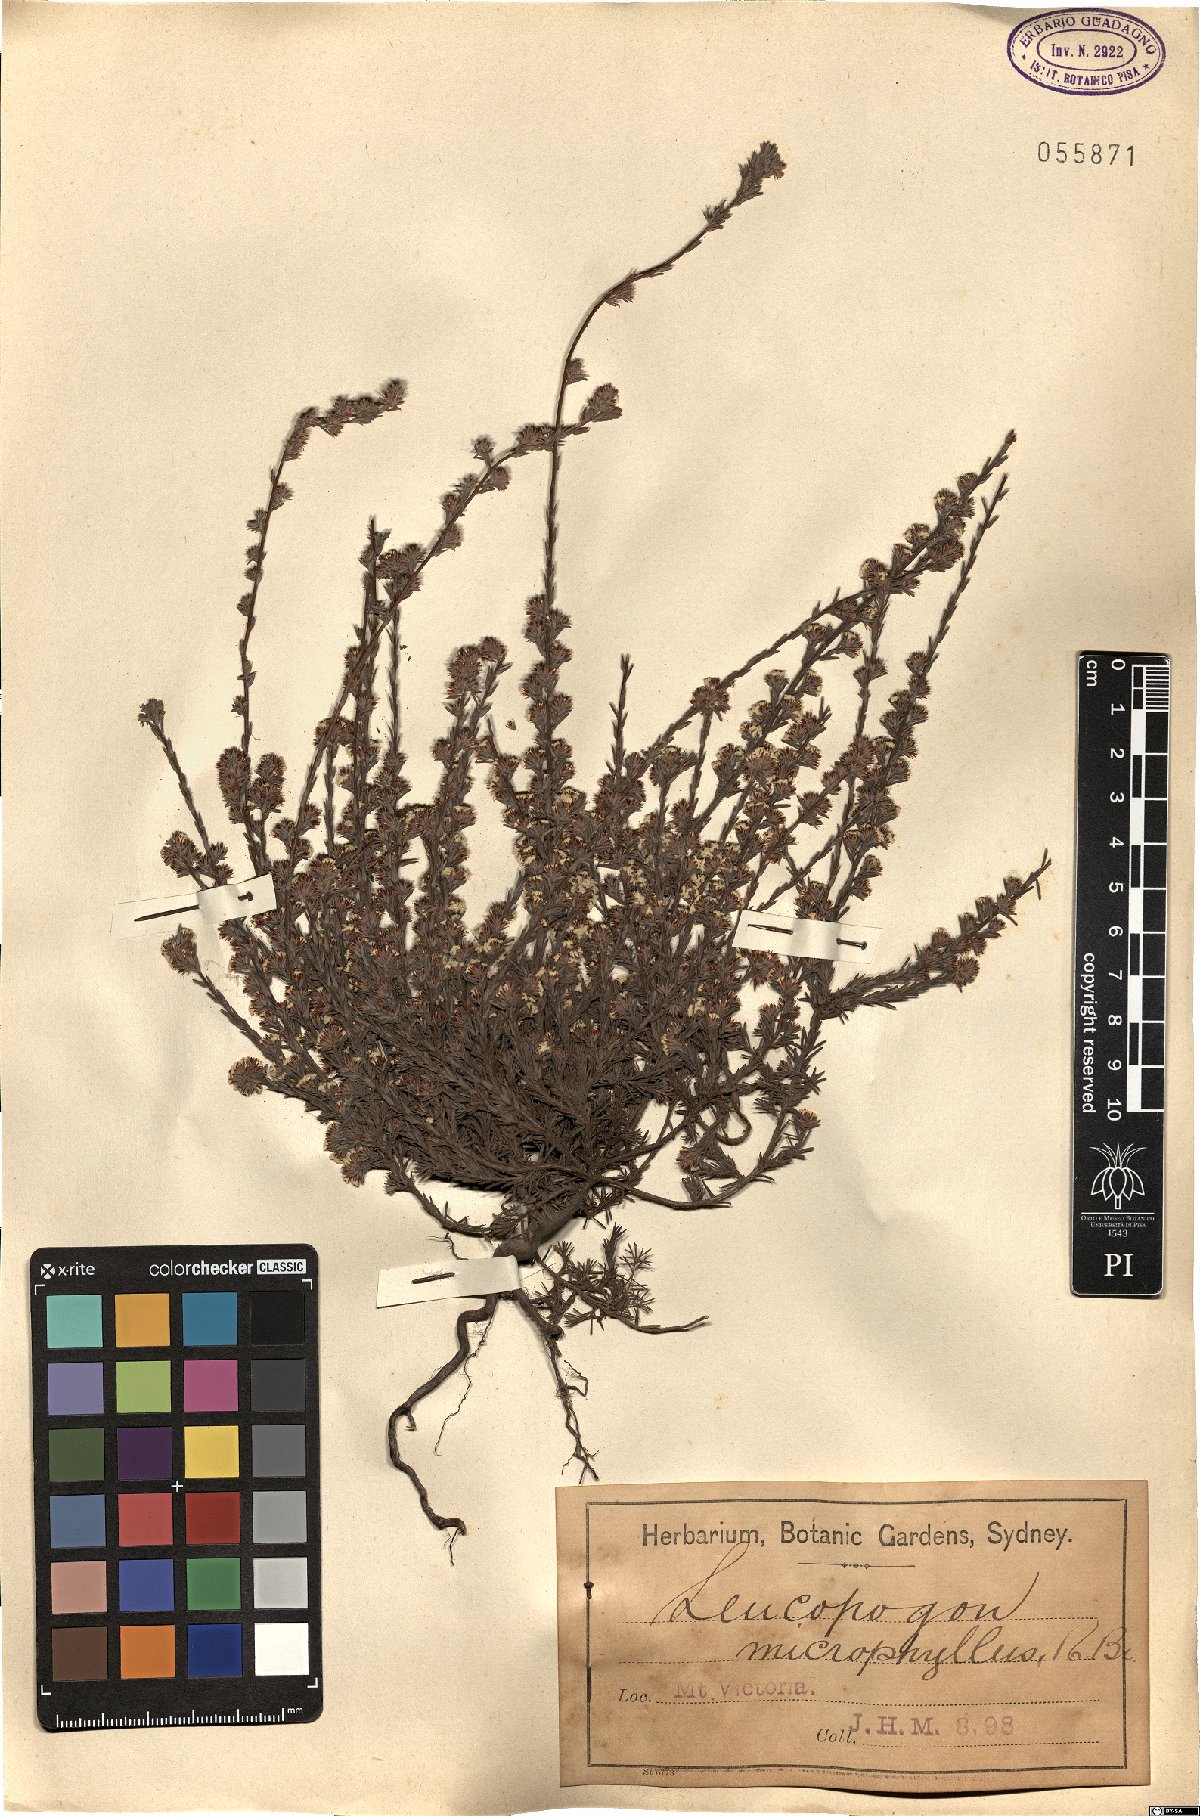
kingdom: Plantae
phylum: Tracheophyta
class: Magnoliopsida
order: Ericales
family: Ericaceae
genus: Leucopogon
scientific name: Leucopogon microphyllus
